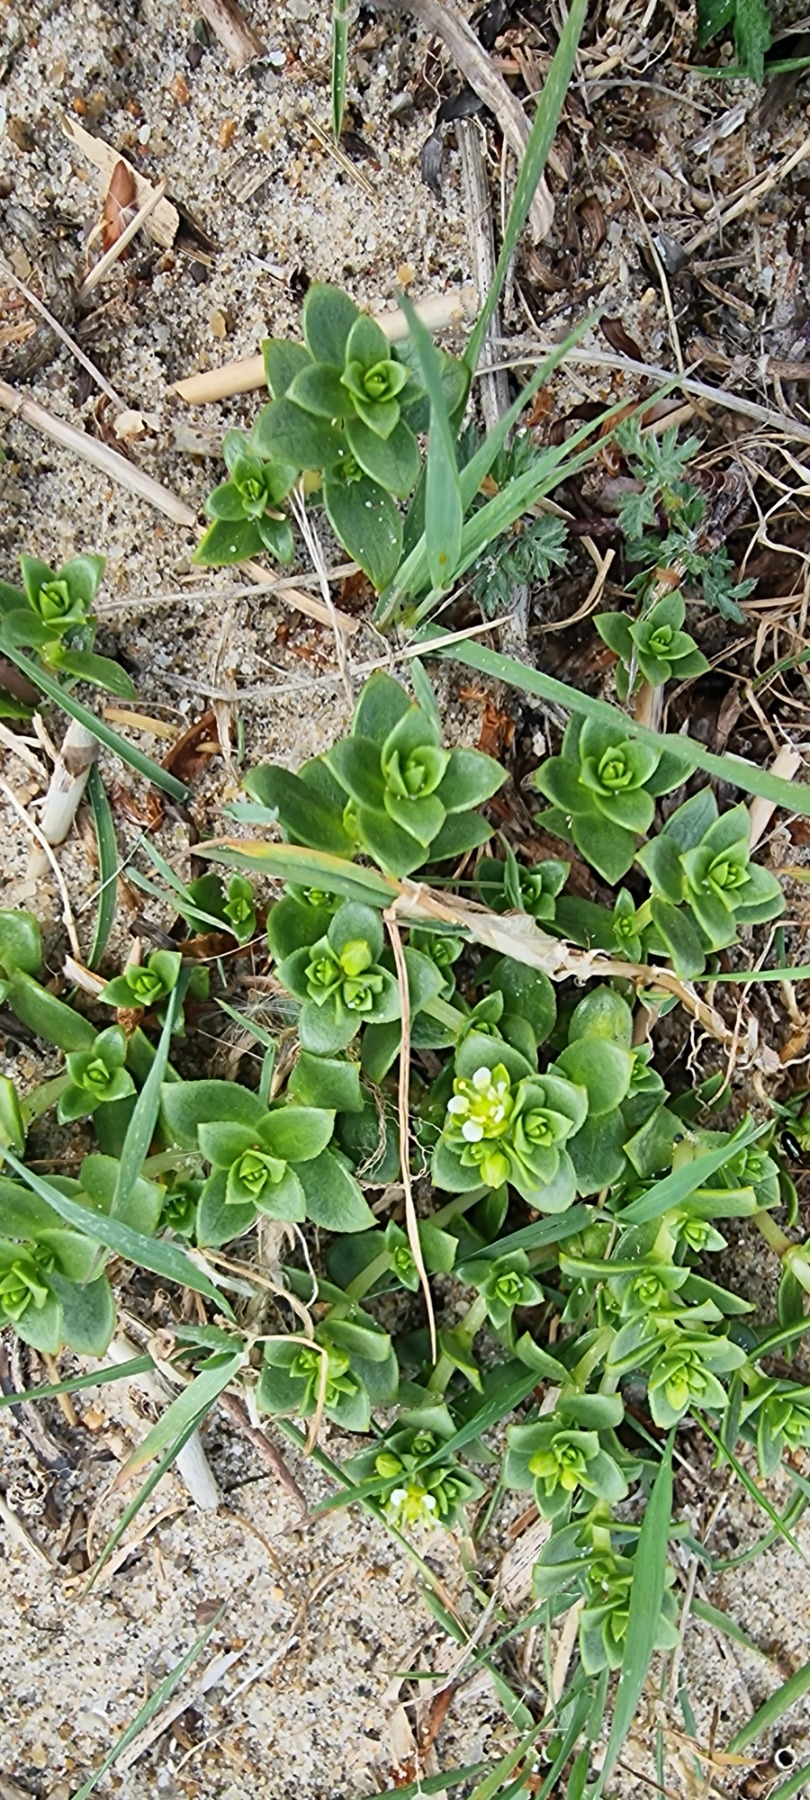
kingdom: Plantae
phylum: Tracheophyta
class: Magnoliopsida
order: Caryophyllales
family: Caryophyllaceae
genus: Honckenya
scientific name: Honckenya peploides
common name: Strandarve
